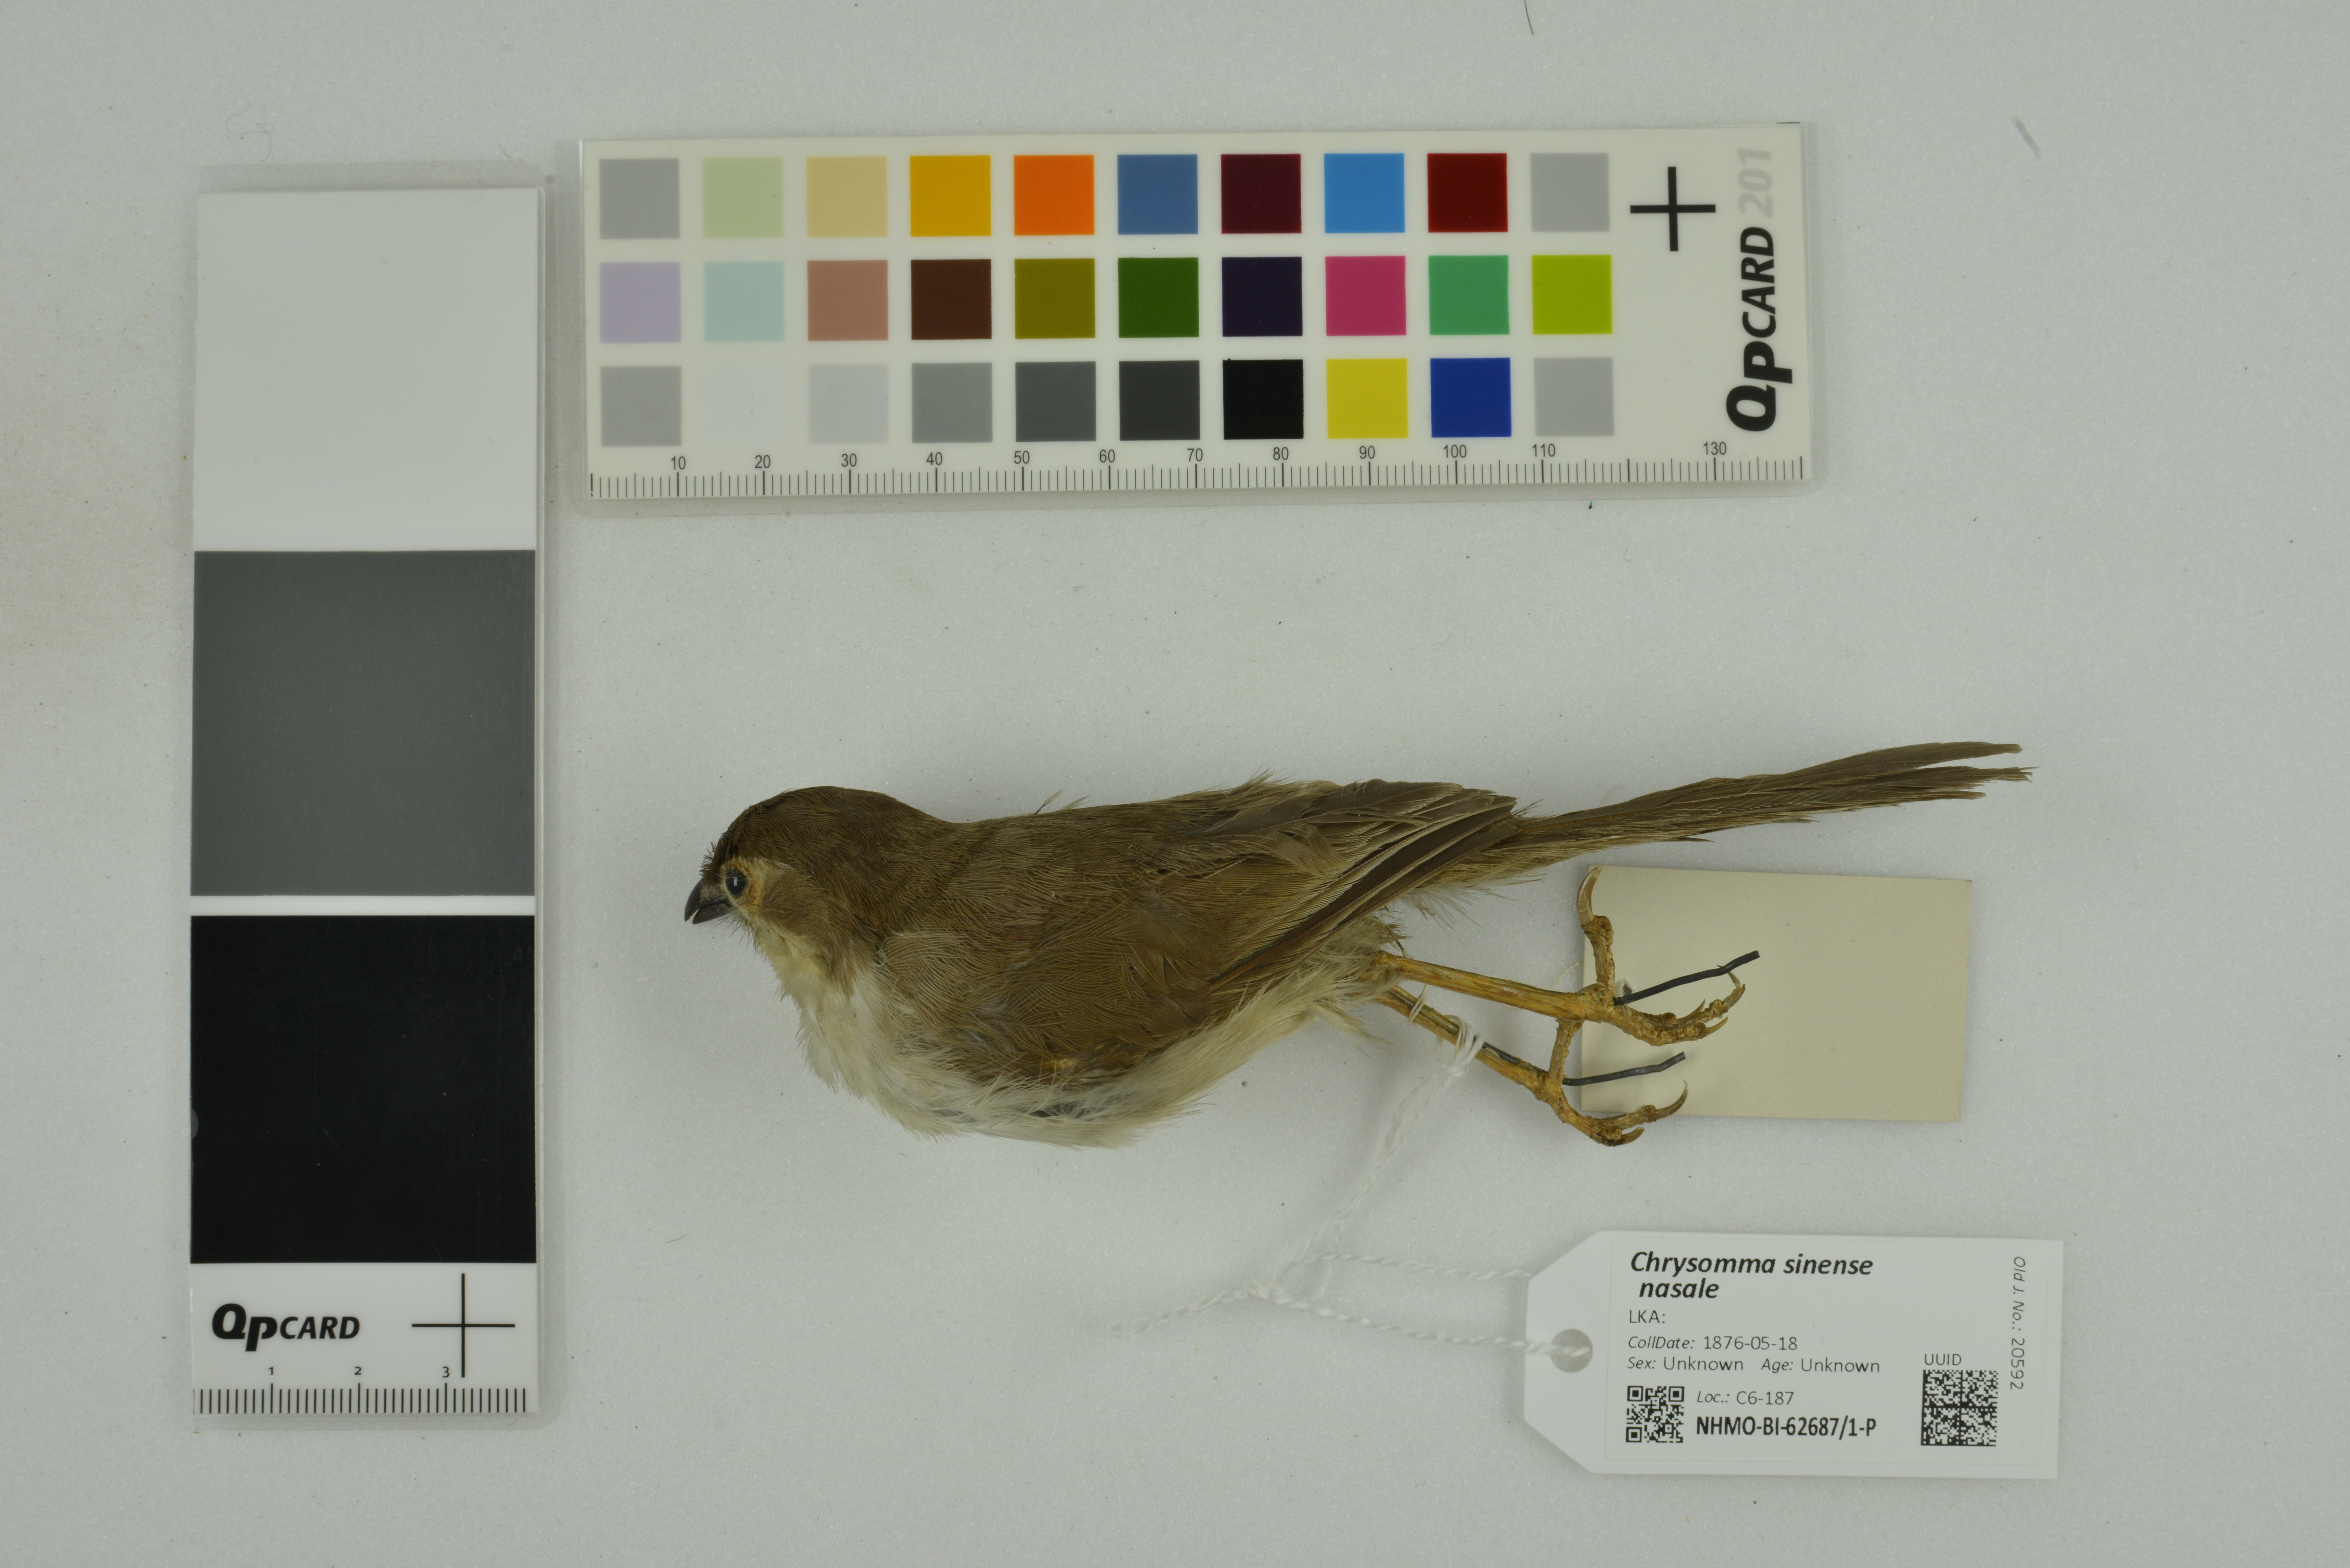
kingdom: Animalia
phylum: Chordata
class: Aves
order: Passeriformes
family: Sylviidae
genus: Chrysomma
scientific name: Chrysomma sinense
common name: Yellow-eyed babbler
